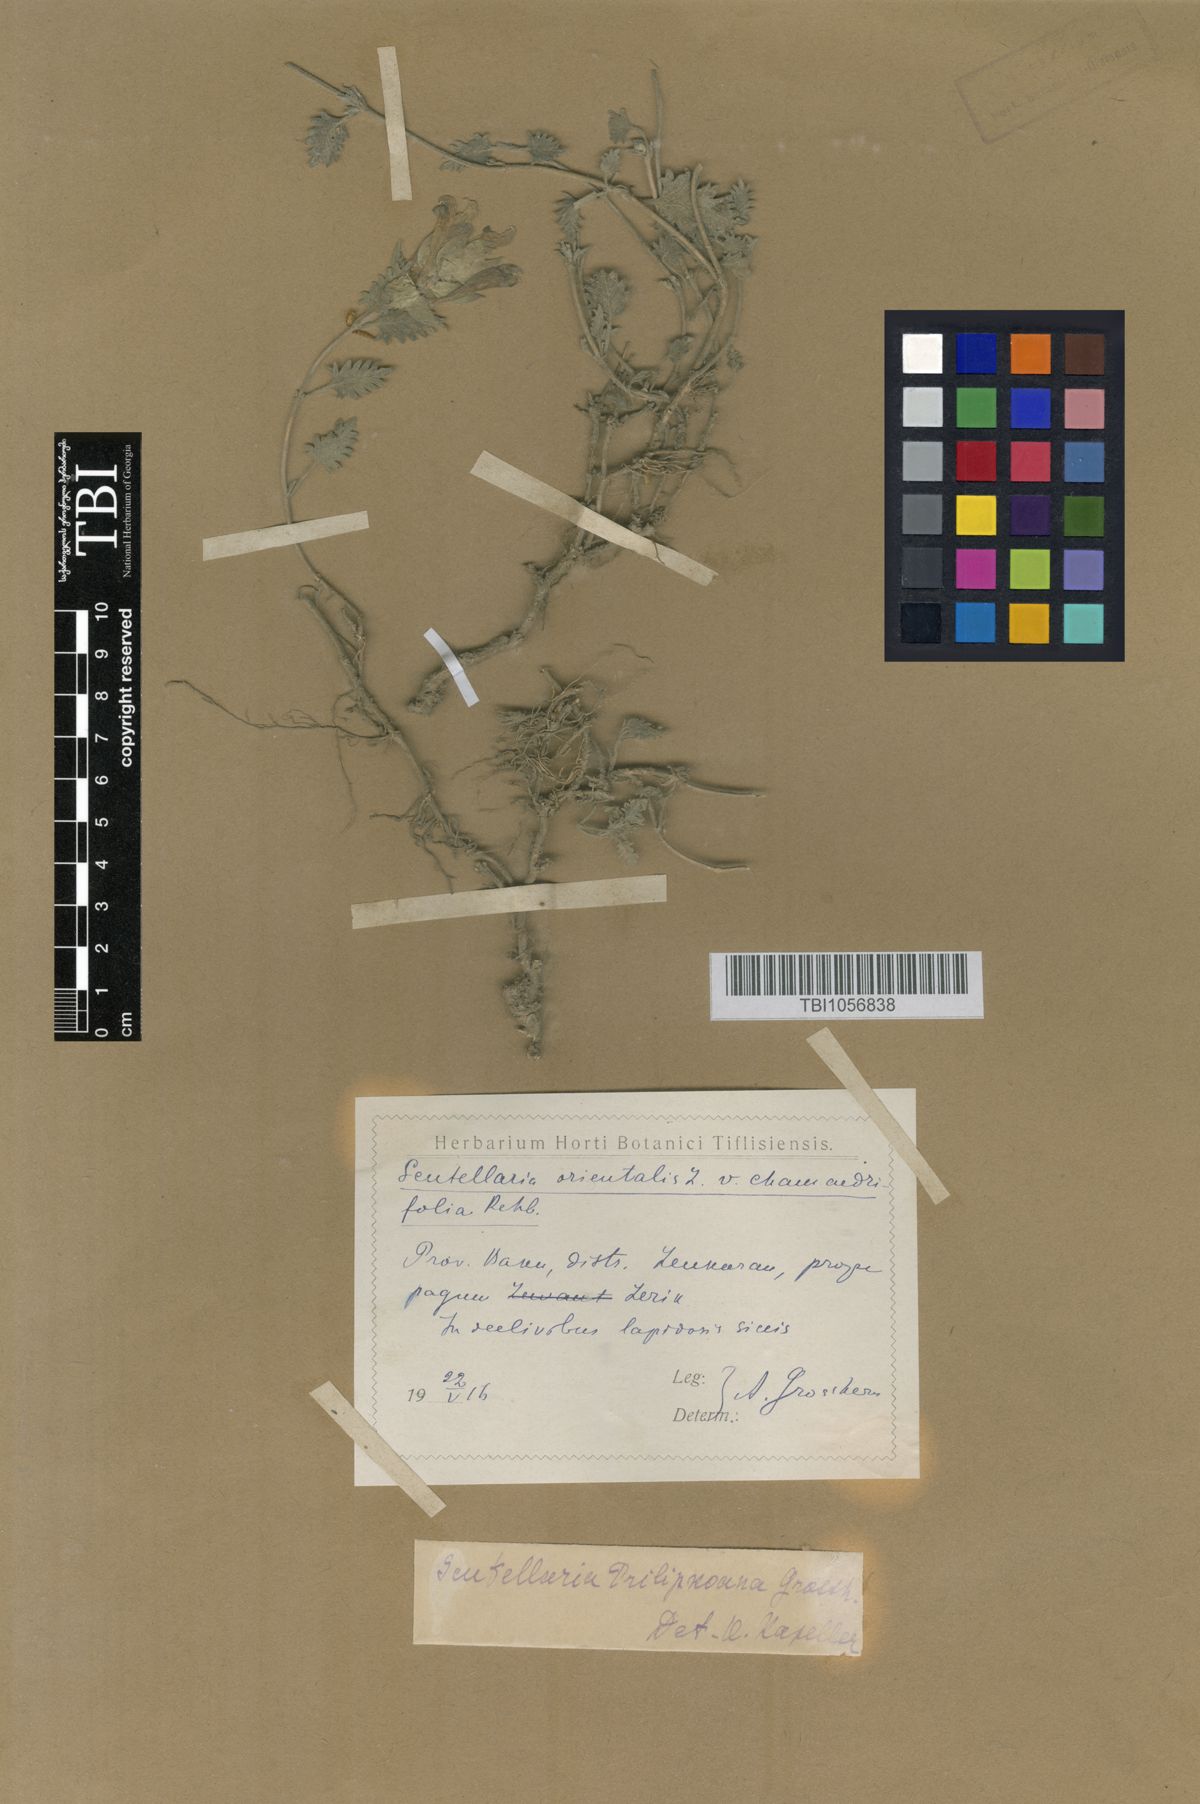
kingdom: Plantae
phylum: Tracheophyta
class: Magnoliopsida
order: Lamiales
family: Lamiaceae
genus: Scutellaria
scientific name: Scutellaria prilipkoana
